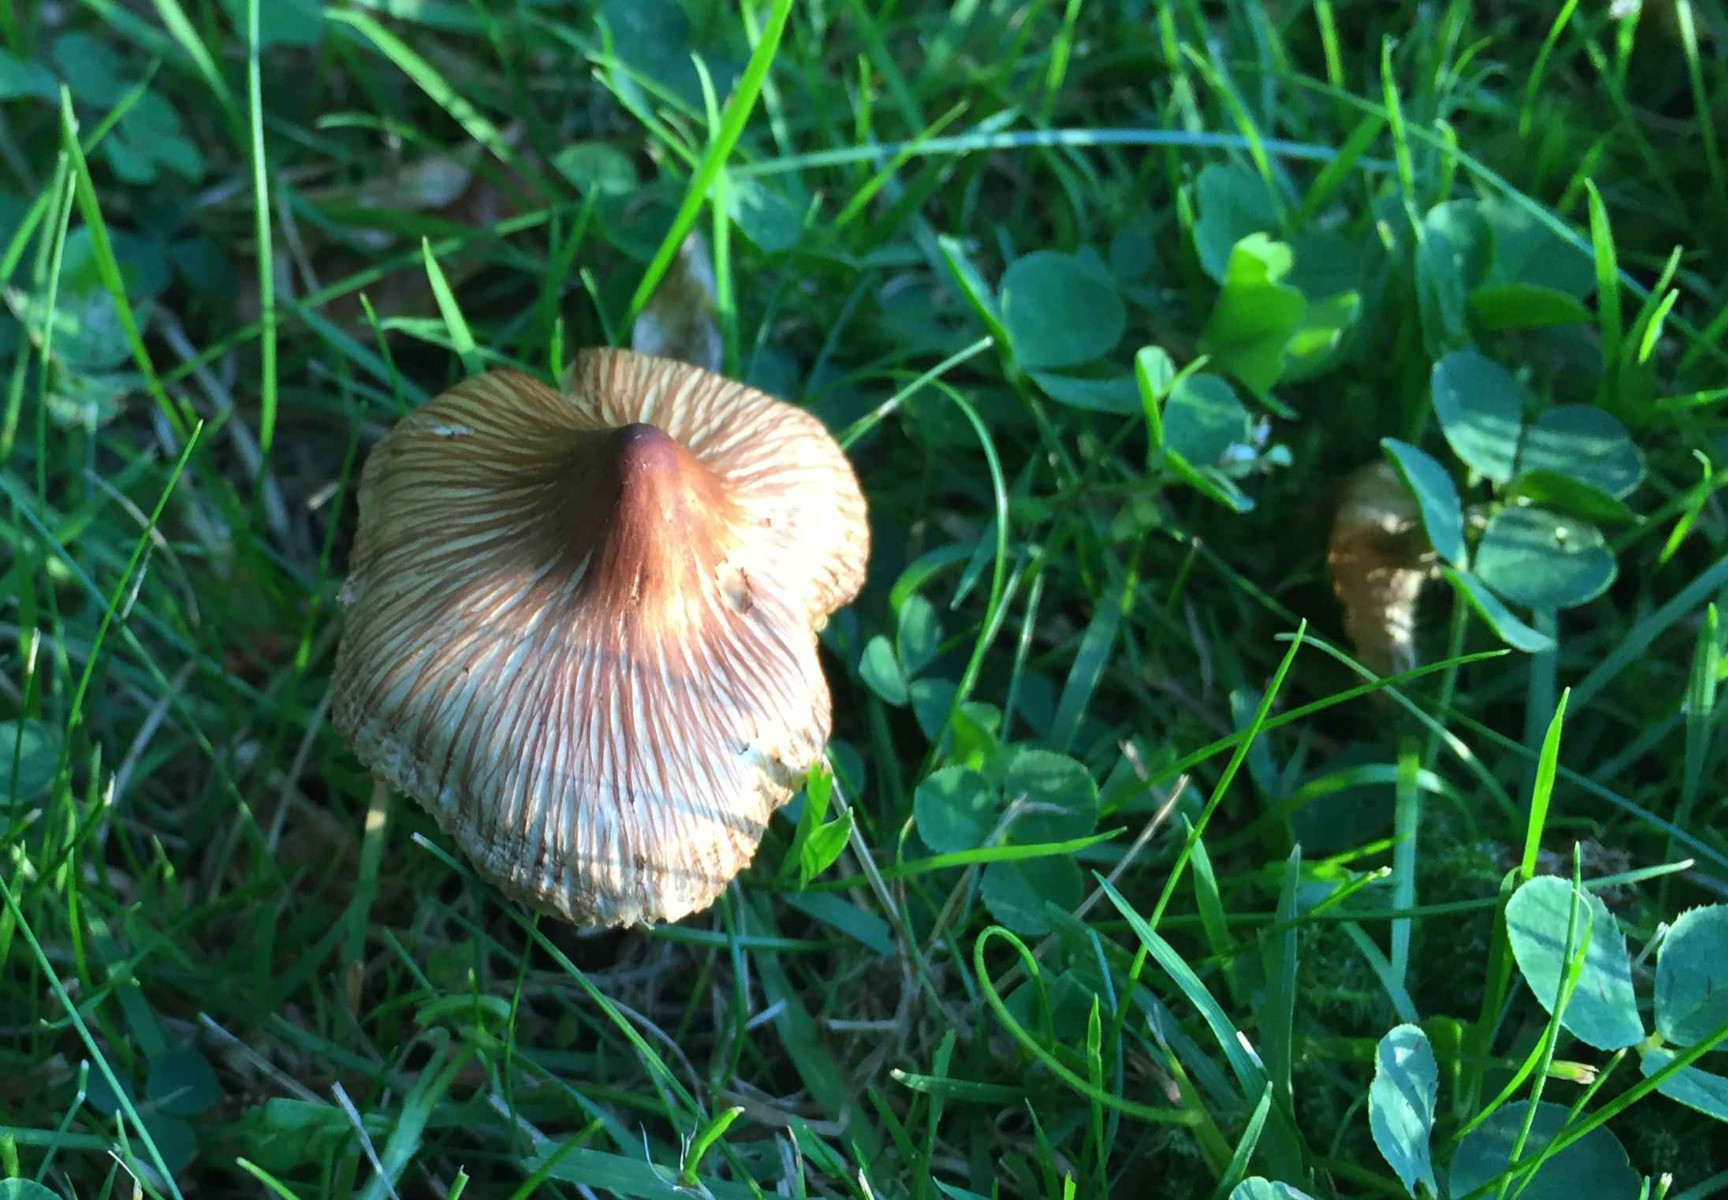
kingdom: Fungi
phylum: Basidiomycota
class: Agaricomycetes
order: Agaricales
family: Inocybaceae
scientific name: Inocybaceae
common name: trævlhatfamilien
